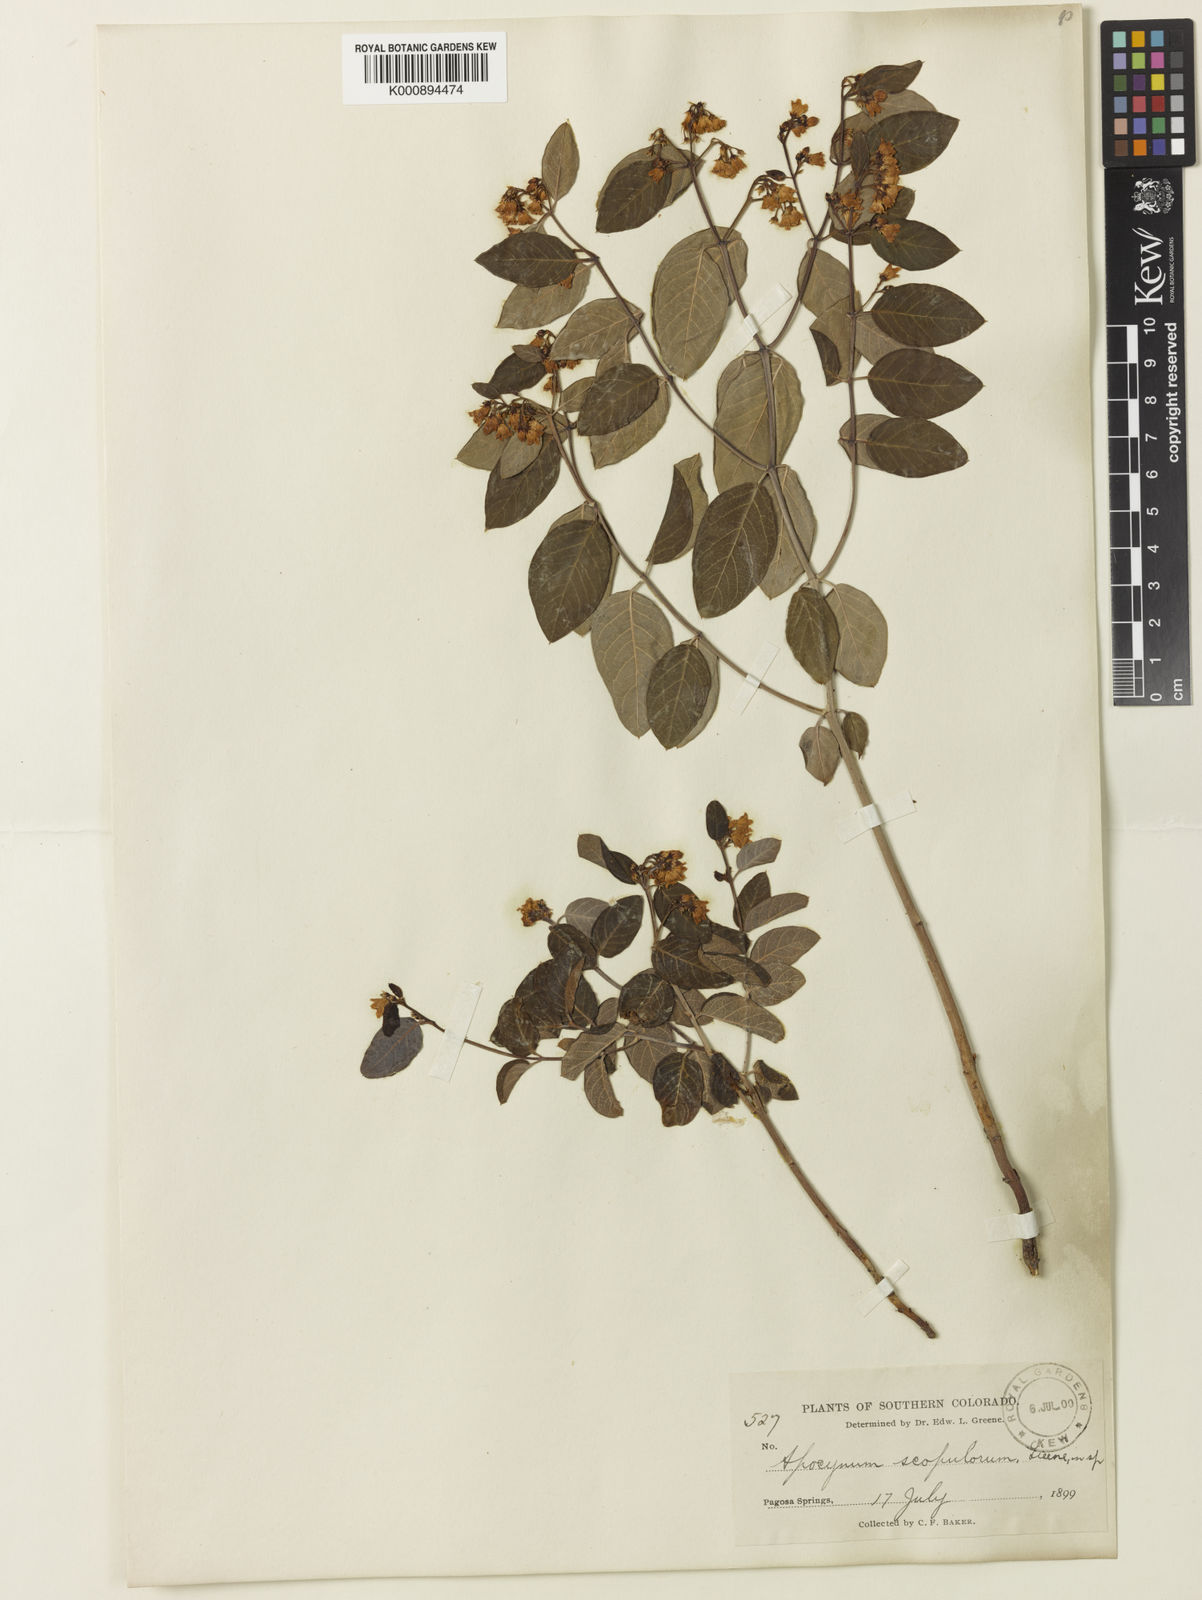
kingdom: Plantae
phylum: Tracheophyta
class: Magnoliopsida
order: Gentianales
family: Apocynaceae
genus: Apocynum
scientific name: Apocynum
